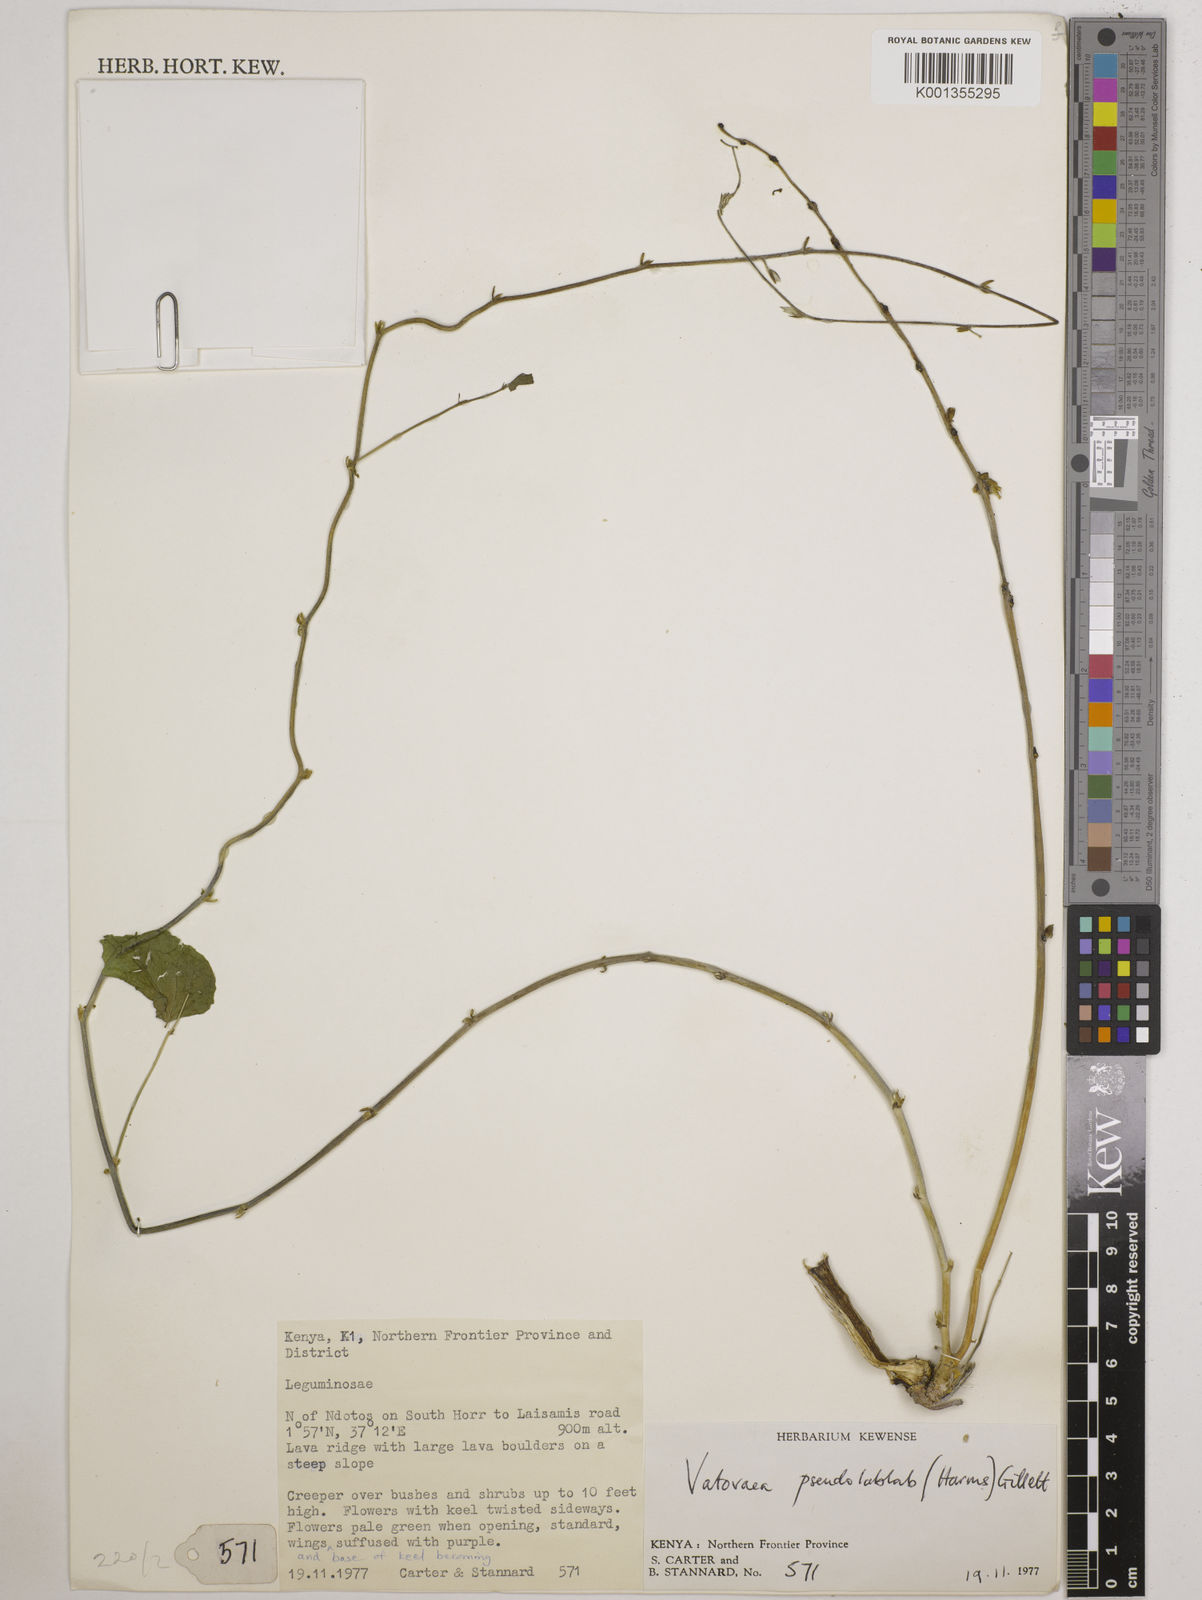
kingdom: Plantae
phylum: Tracheophyta
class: Magnoliopsida
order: Fabales
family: Fabaceae
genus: Vatovaea
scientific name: Vatovaea pseudolablab
